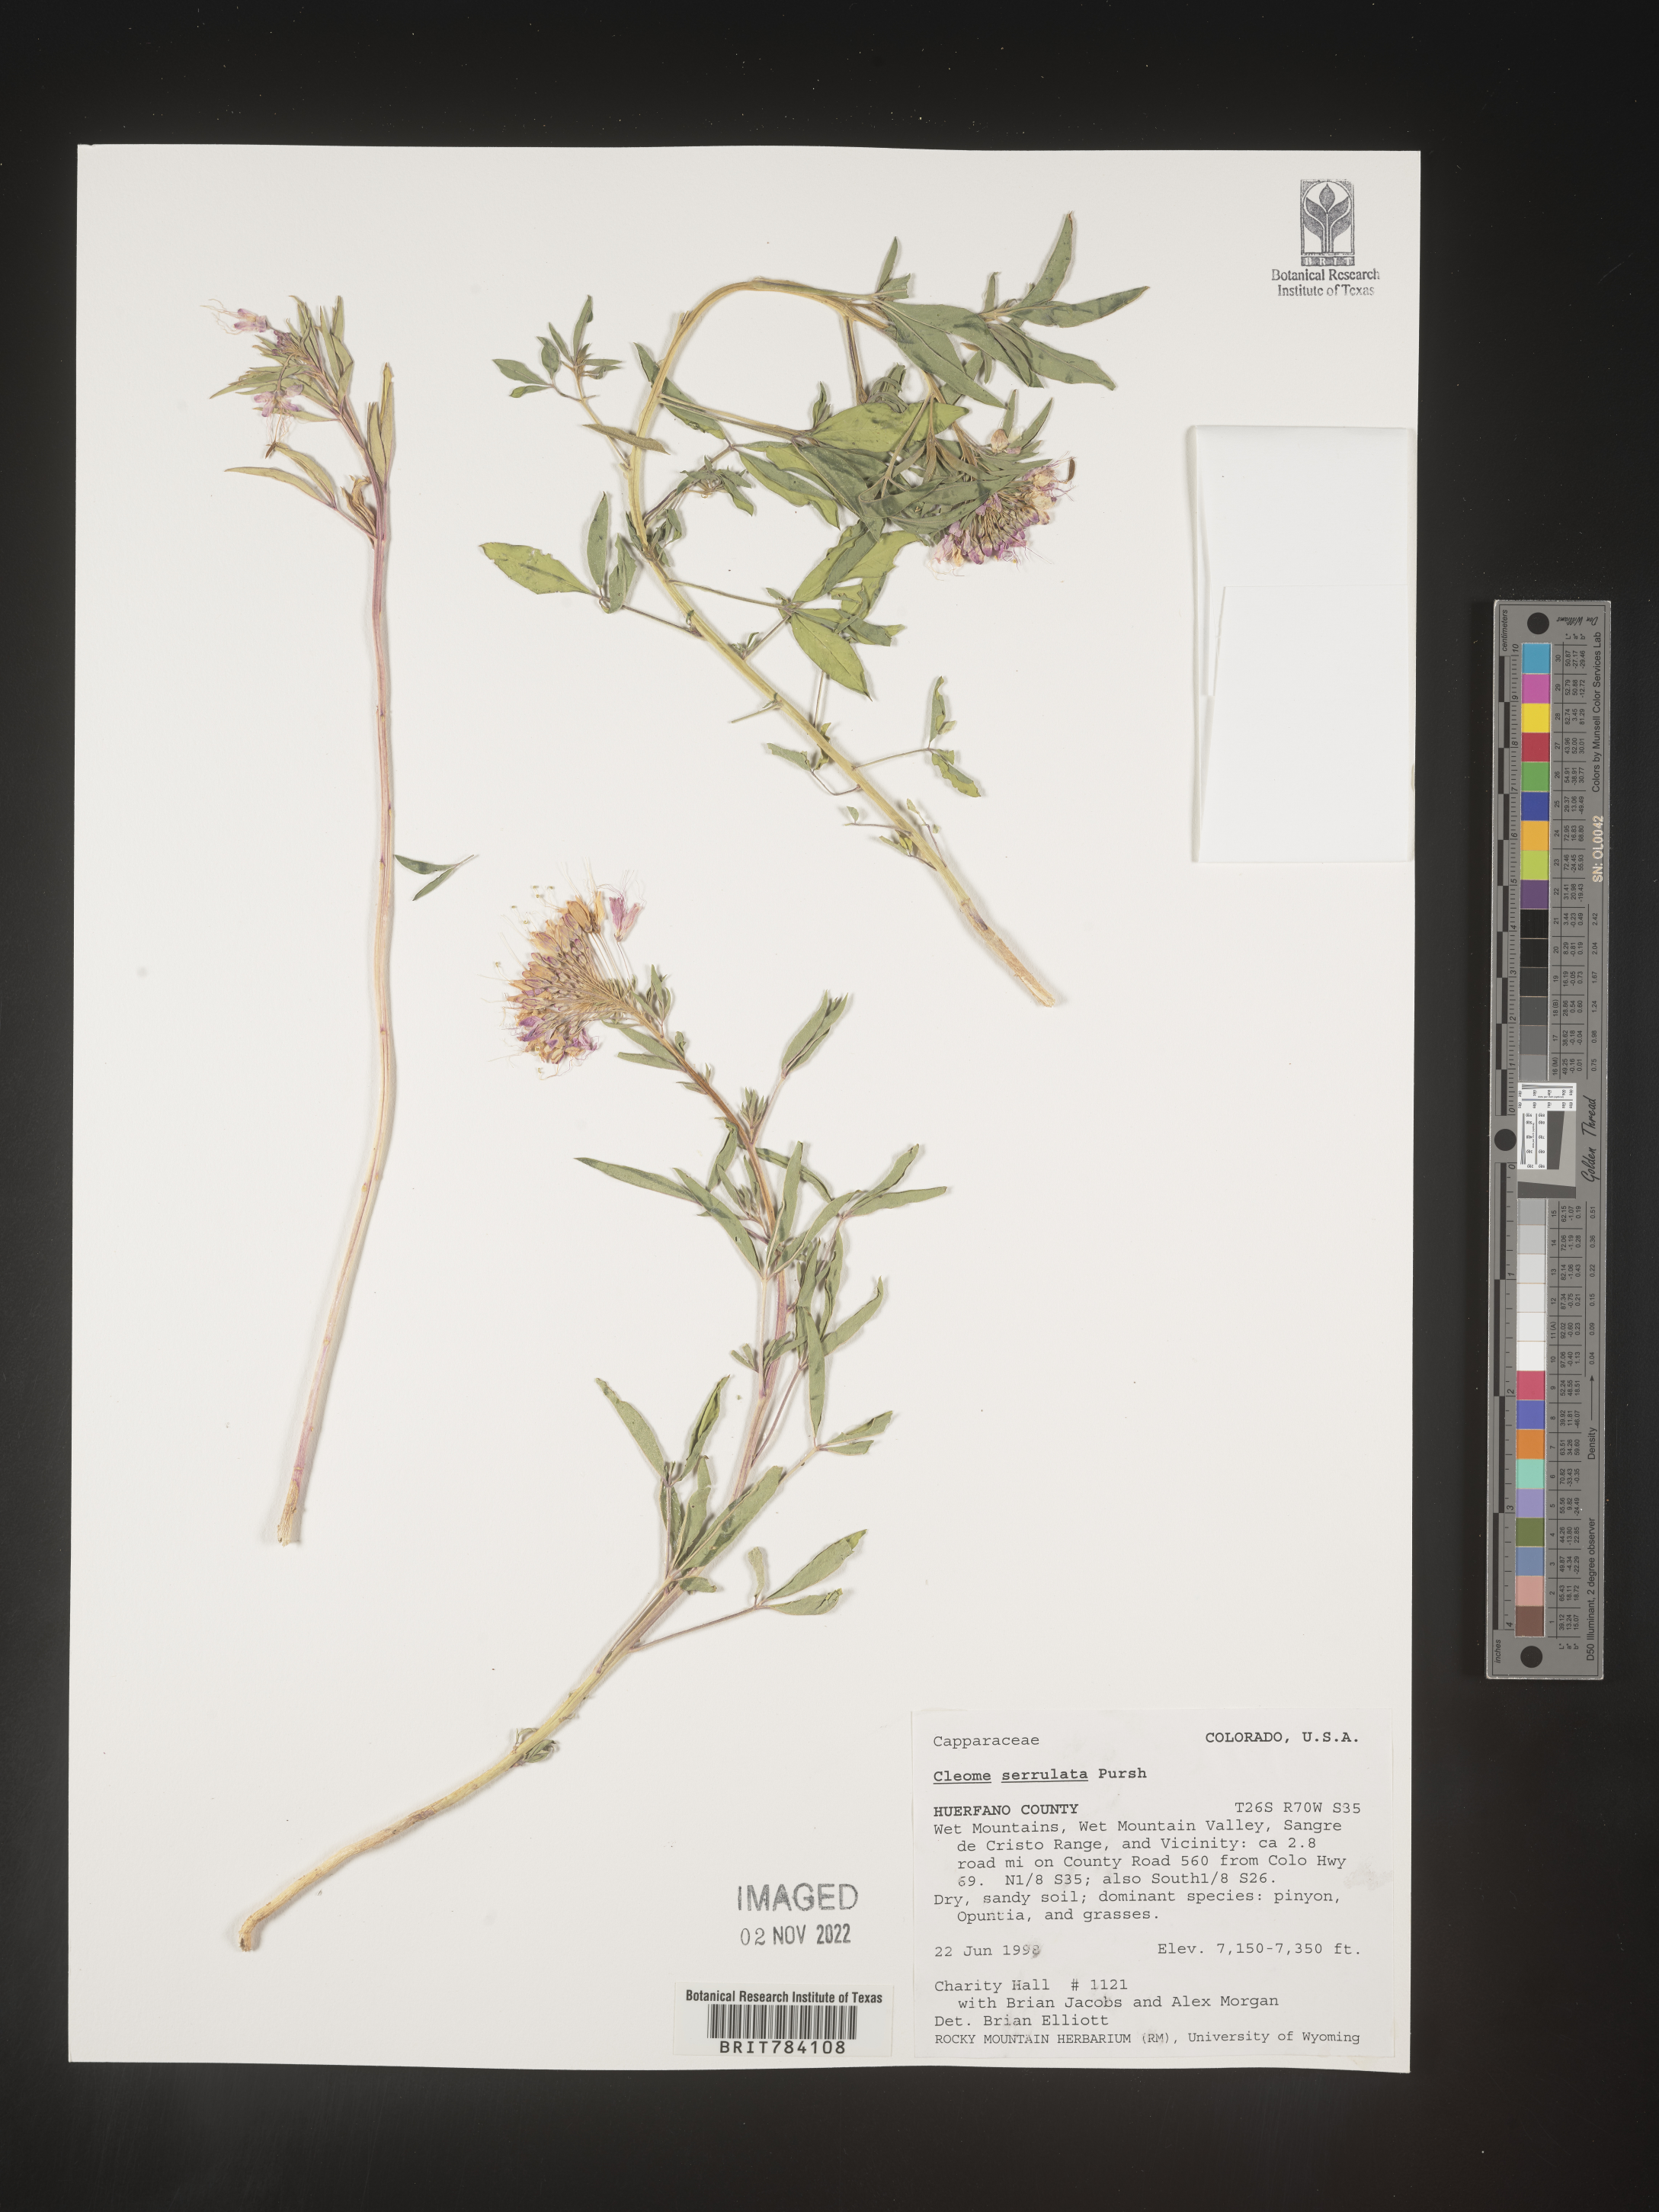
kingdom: Plantae
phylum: Tracheophyta
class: Magnoliopsida
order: Brassicales
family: Cleomaceae
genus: Cleomella
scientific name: Cleomella serrulata
